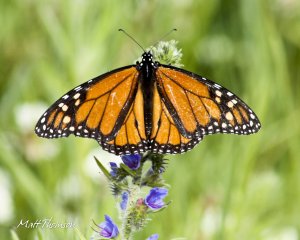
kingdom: Animalia
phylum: Arthropoda
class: Insecta
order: Lepidoptera
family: Nymphalidae
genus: Danaus
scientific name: Danaus plexippus
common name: Monarch
